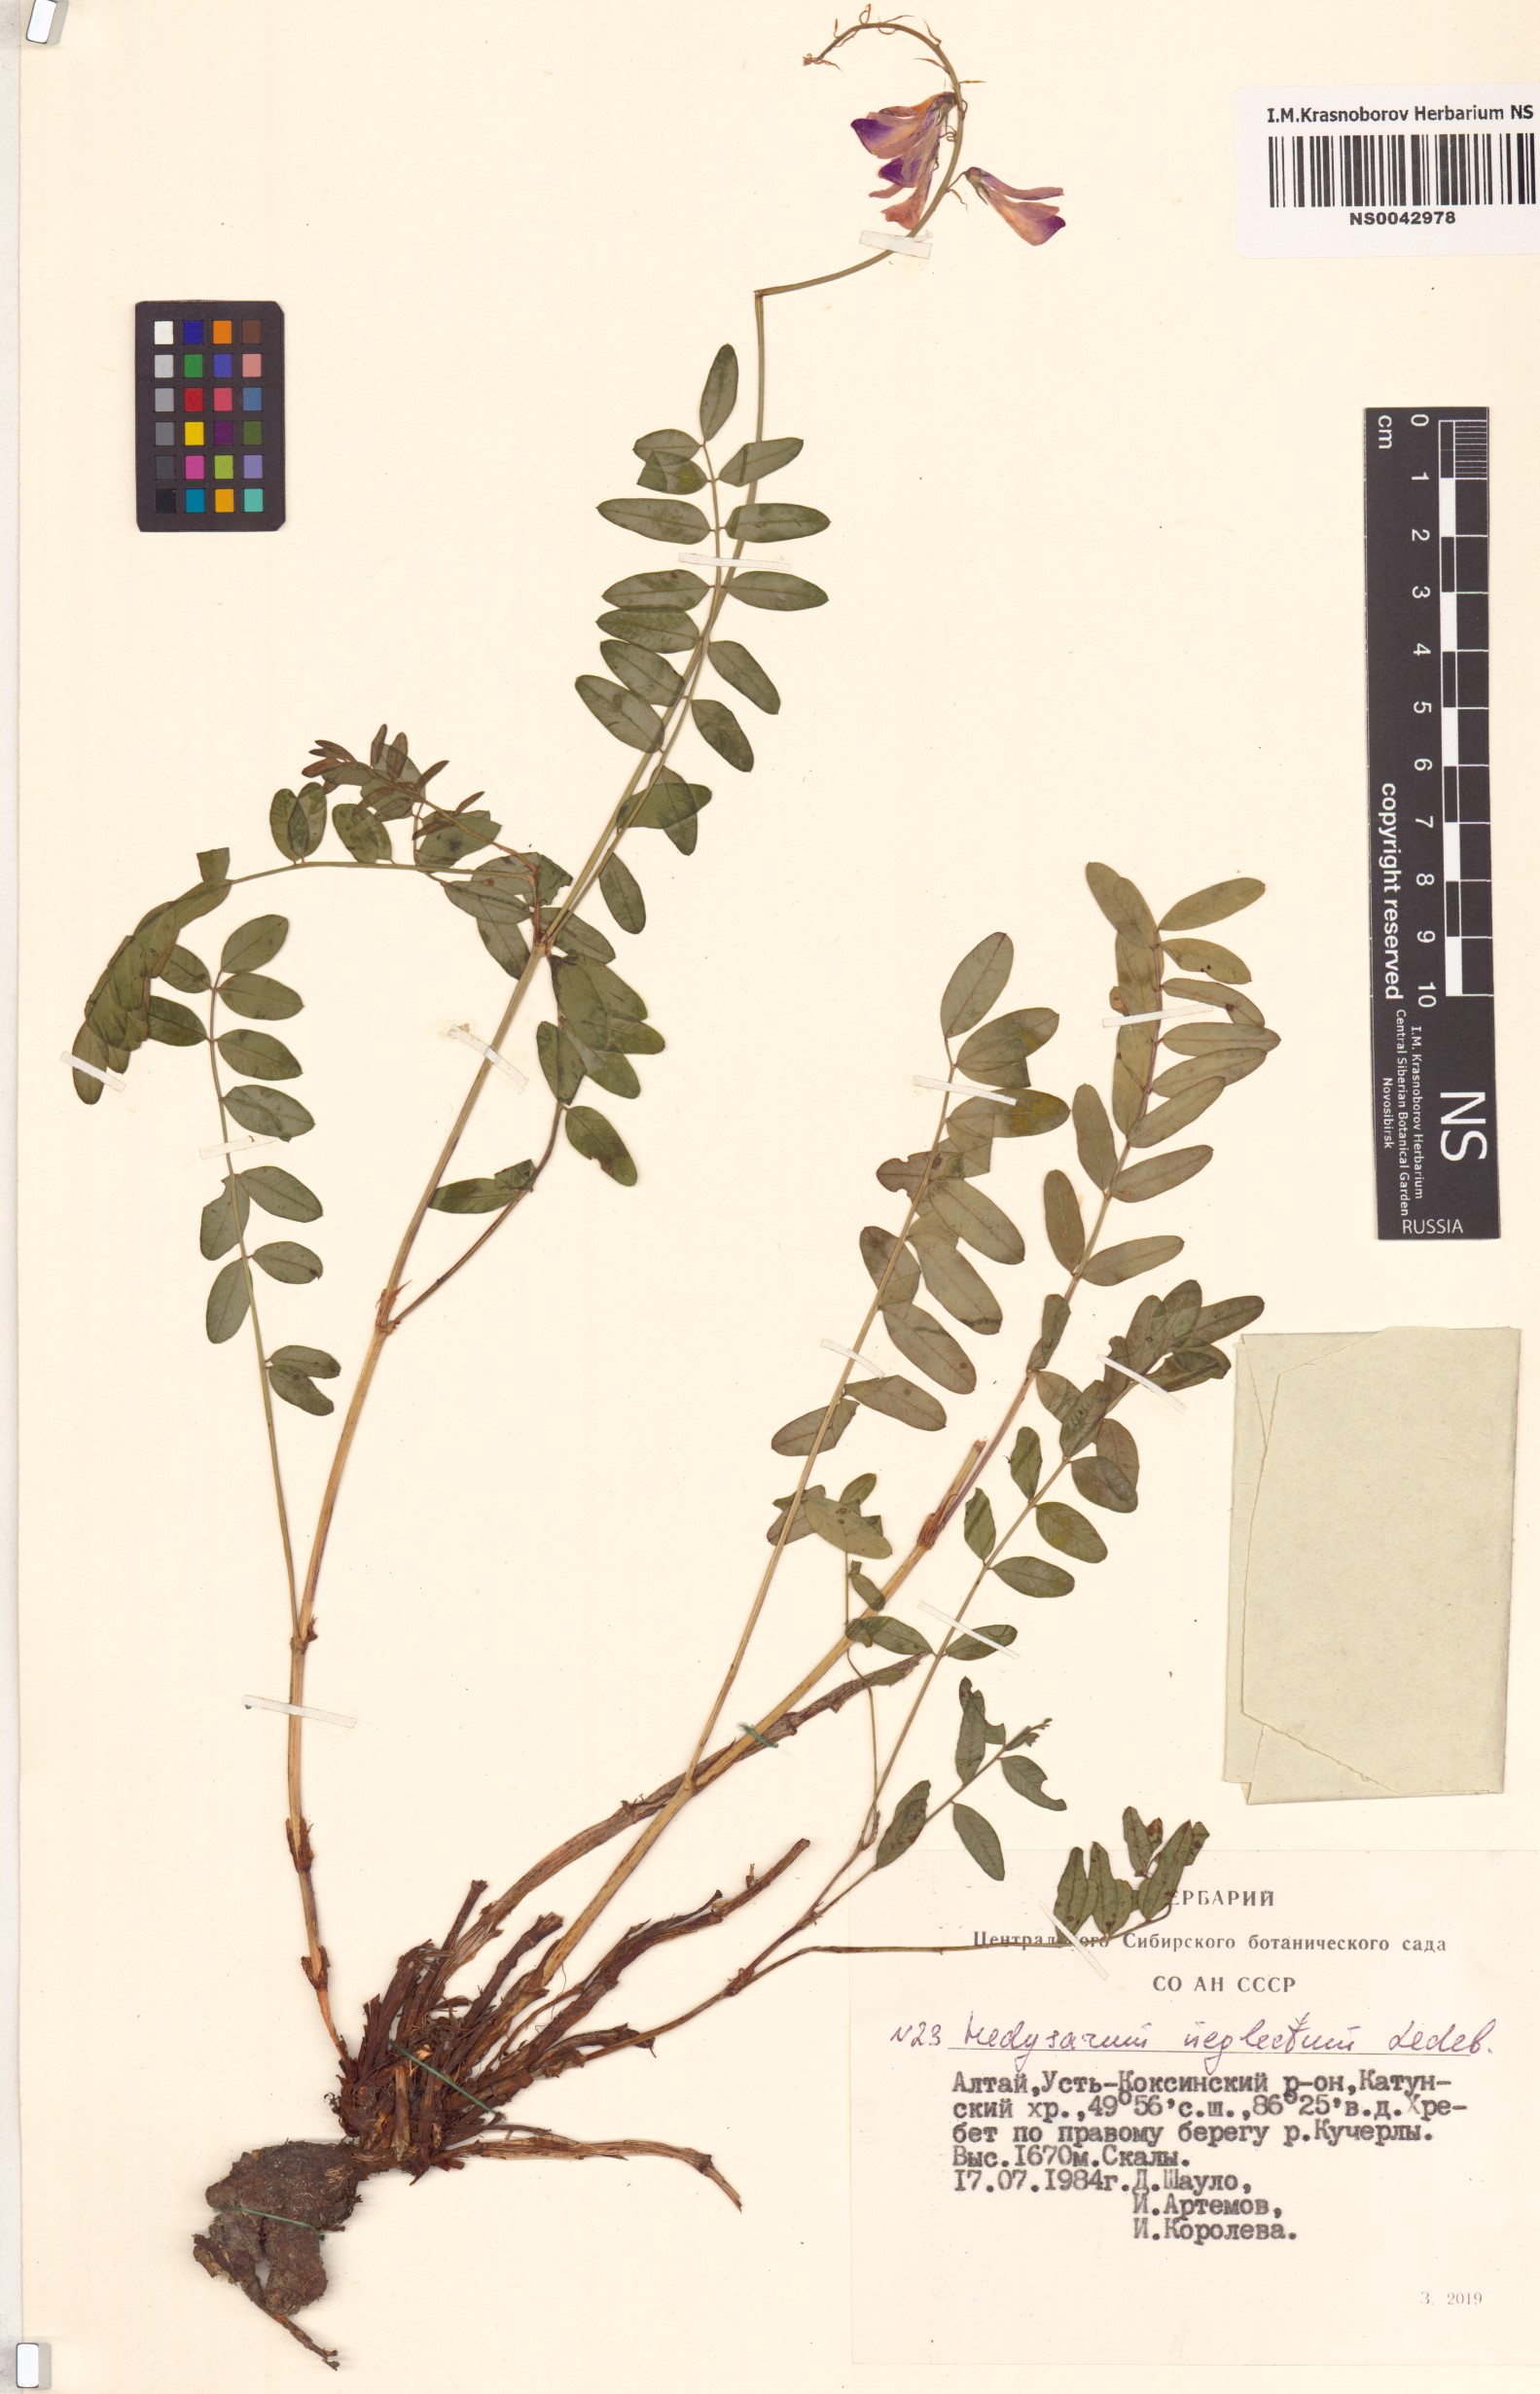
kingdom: Plantae
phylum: Tracheophyta
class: Magnoliopsida
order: Fabales
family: Fabaceae
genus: Hedysarum
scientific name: Hedysarum neglectum
